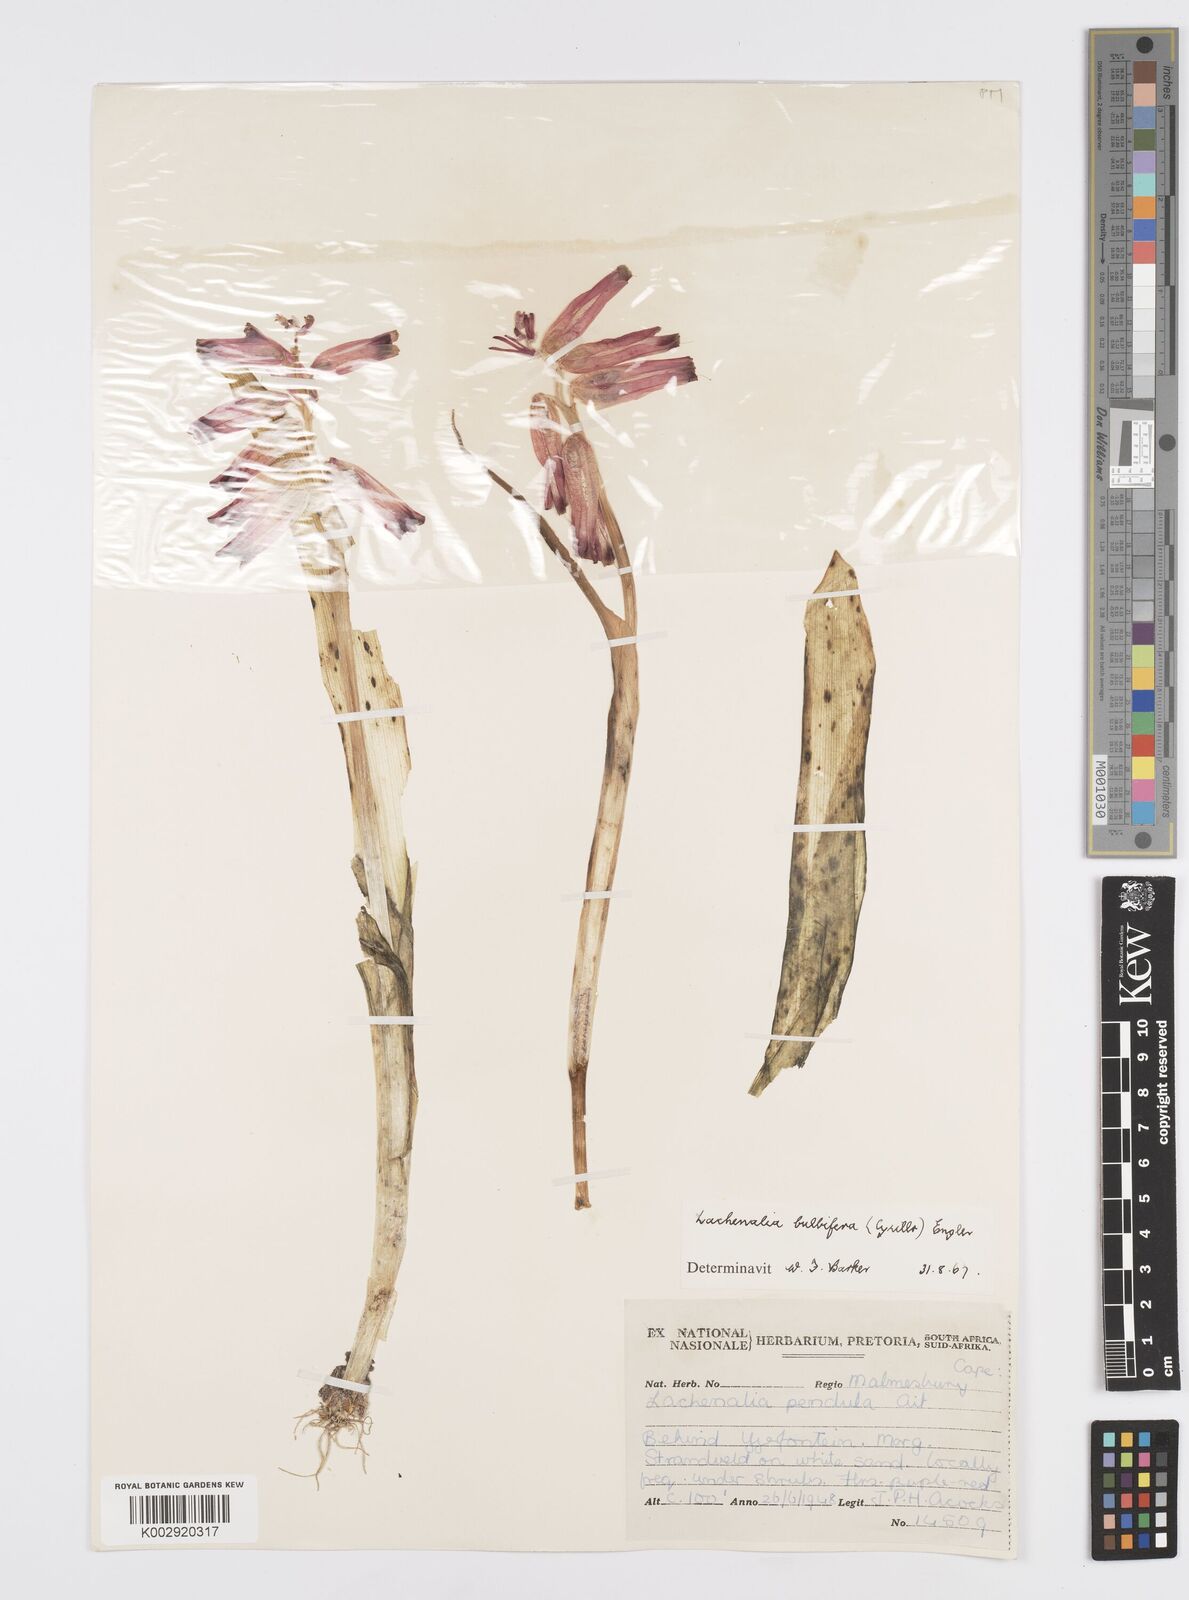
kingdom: Plantae
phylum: Tracheophyta
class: Liliopsida
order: Asparagales
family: Asparagaceae
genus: Lachenalia
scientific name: Lachenalia bulbifera
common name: Red lachenalia
